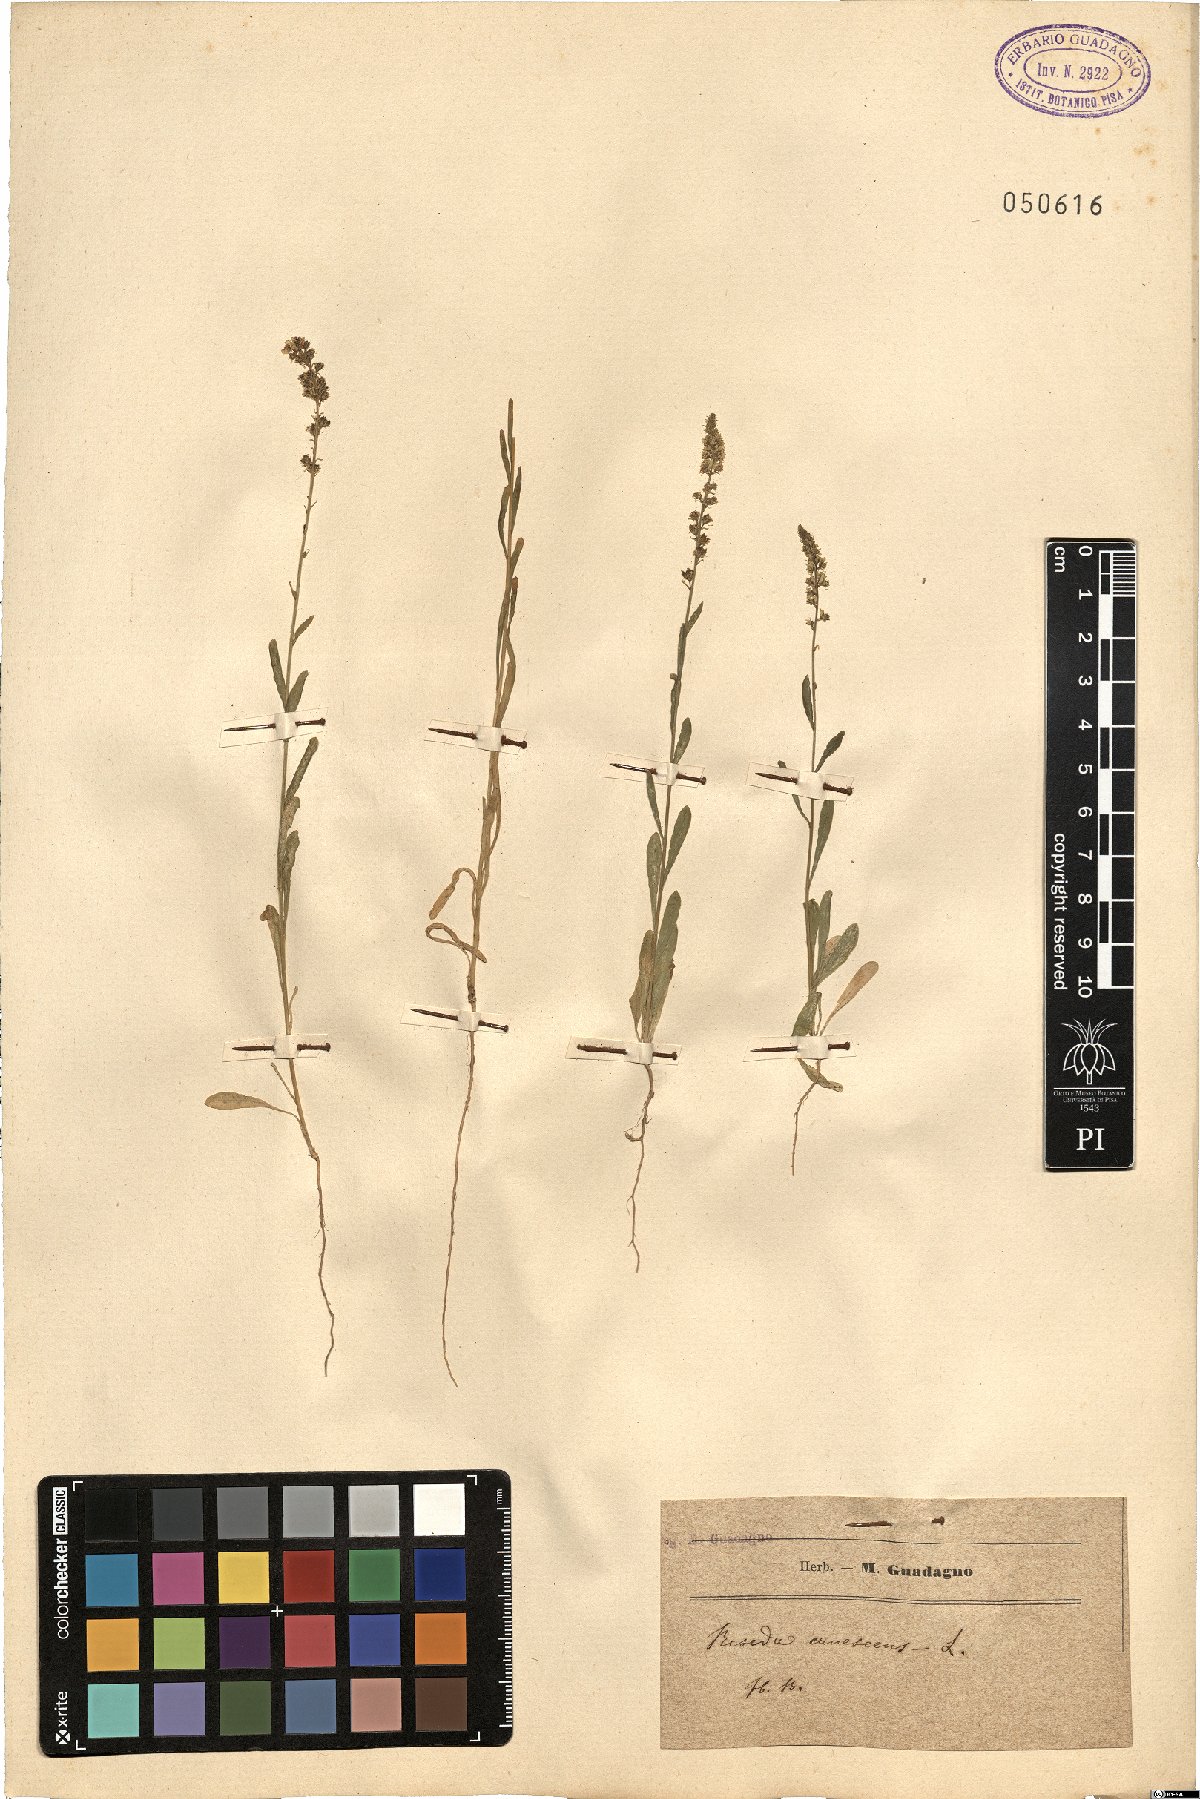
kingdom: Plantae
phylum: Tracheophyta
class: Magnoliopsida
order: Brassicales
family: Resedaceae
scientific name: Resedaceae
